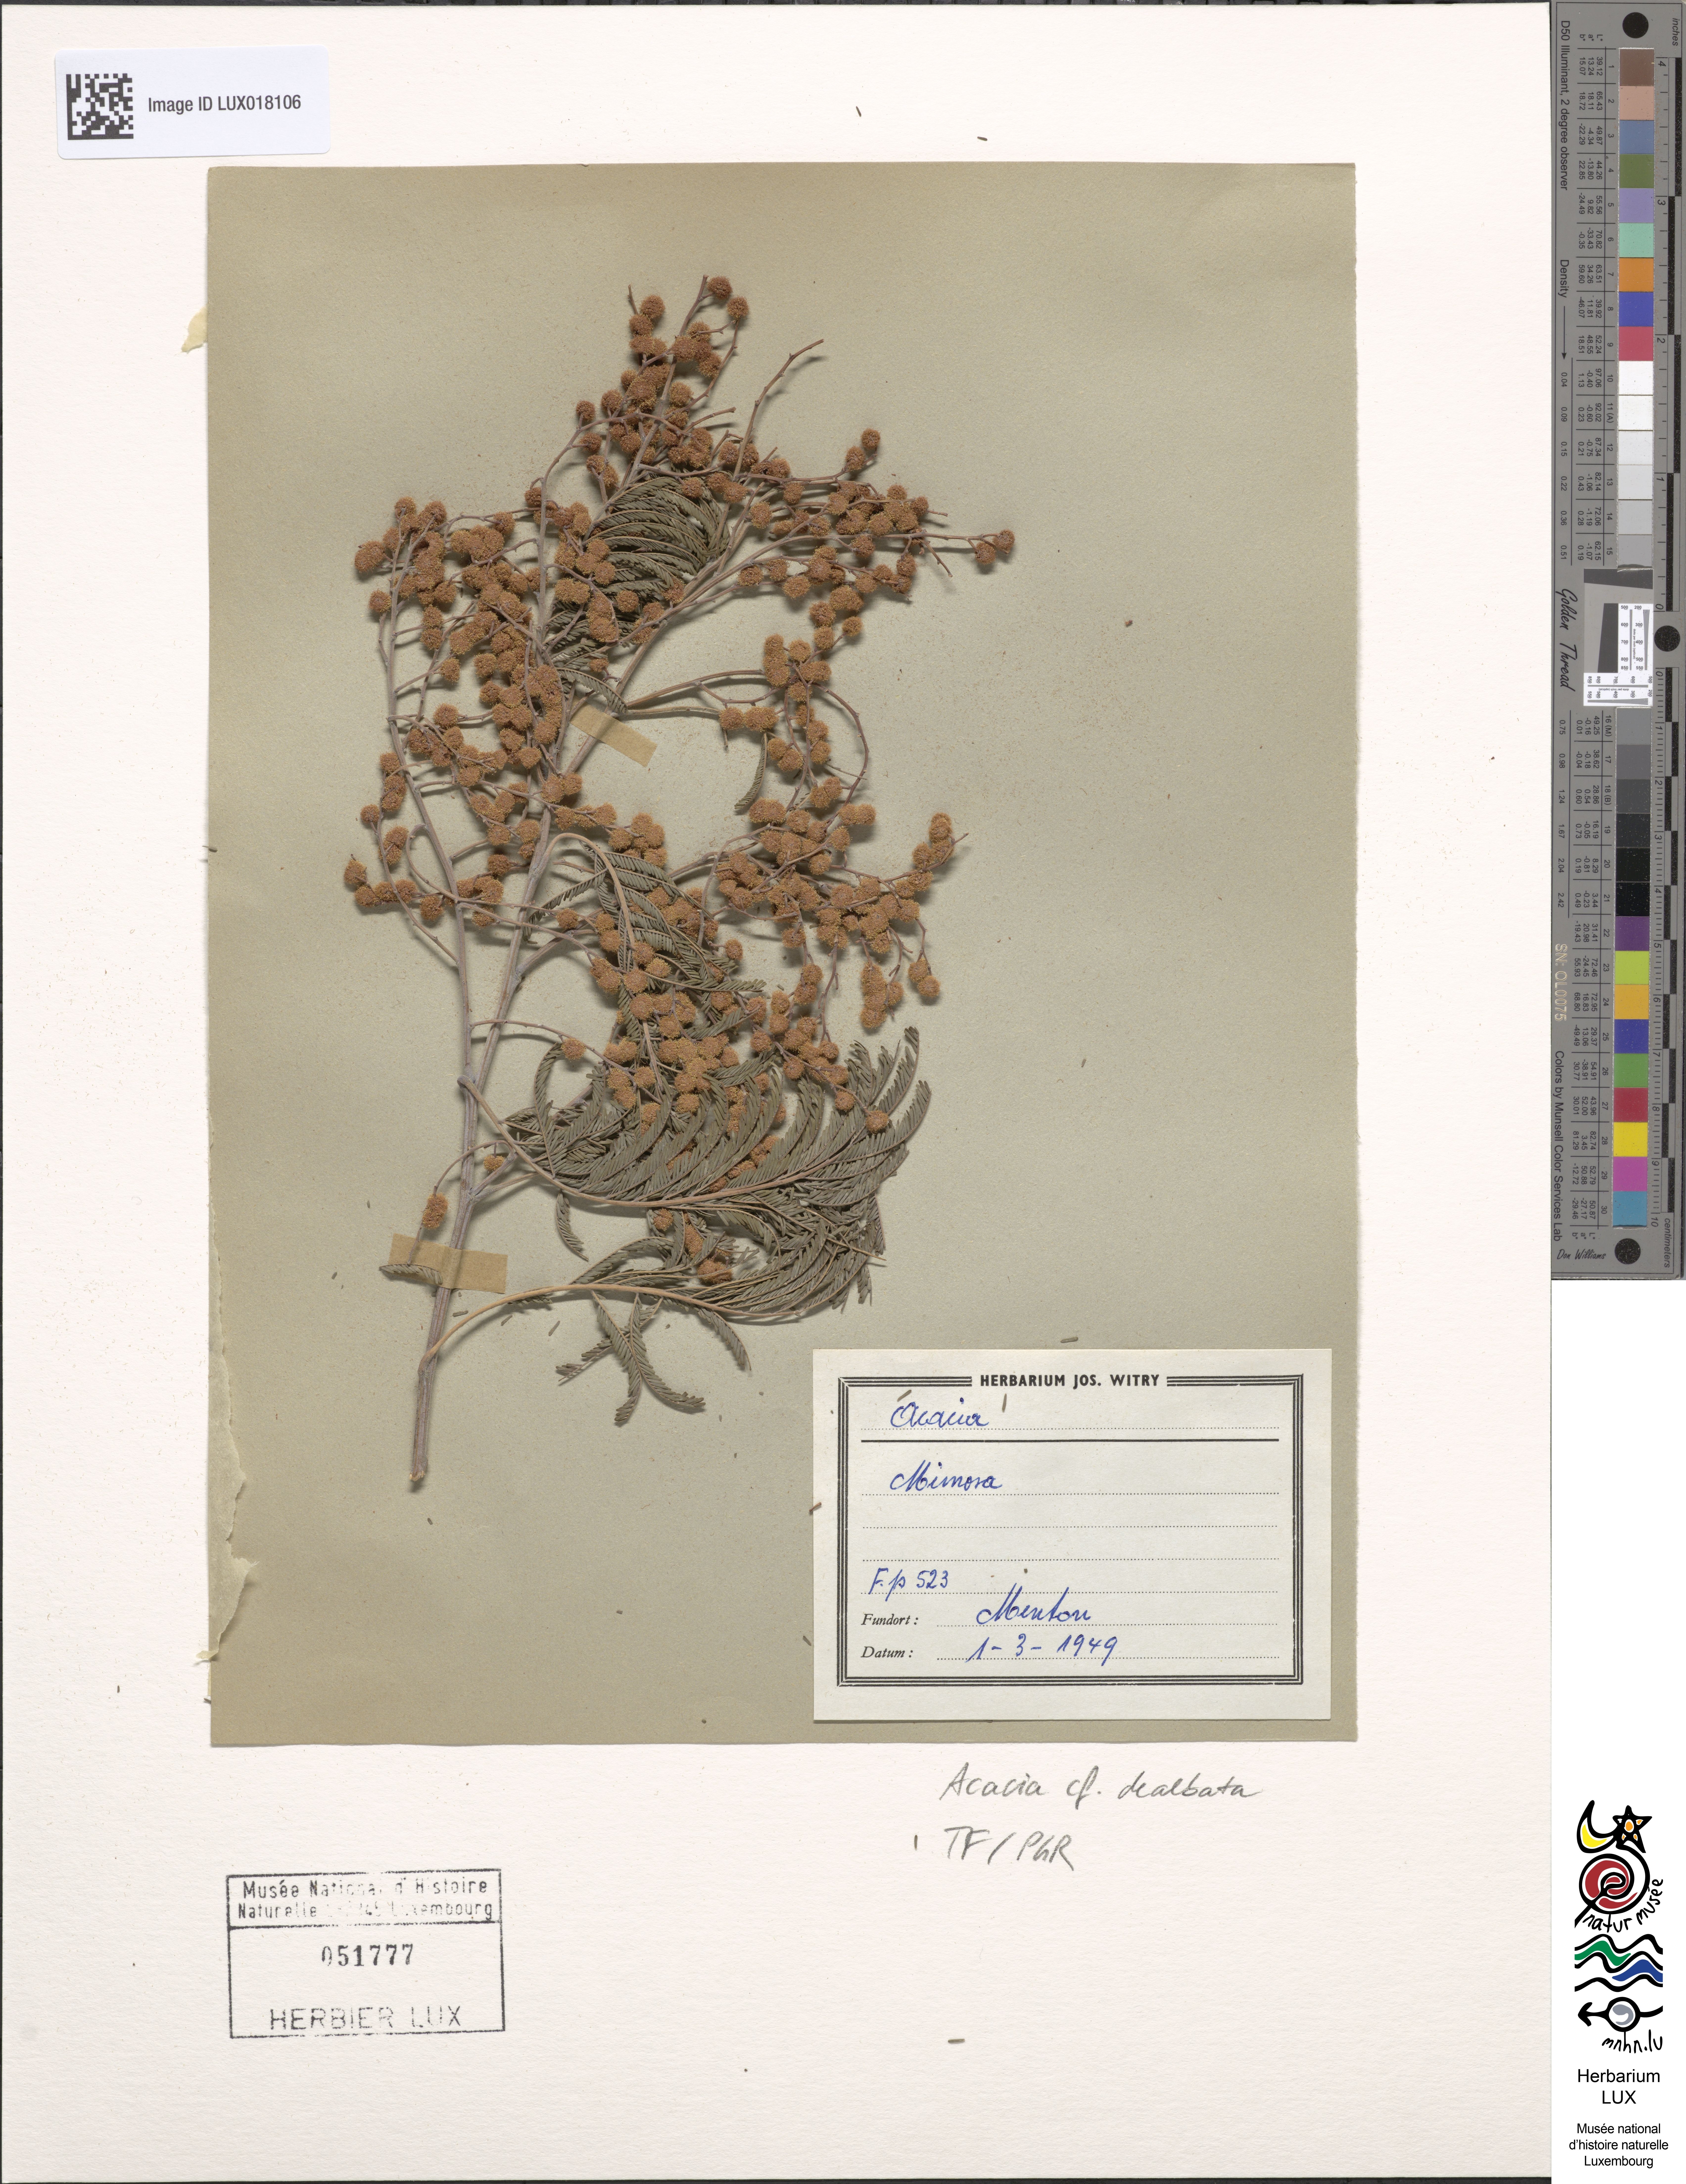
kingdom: Plantae
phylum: Tracheophyta
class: Magnoliopsida
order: Fabales
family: Fabaceae
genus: Acacia
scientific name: Acacia dealbata
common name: Silver wattle
